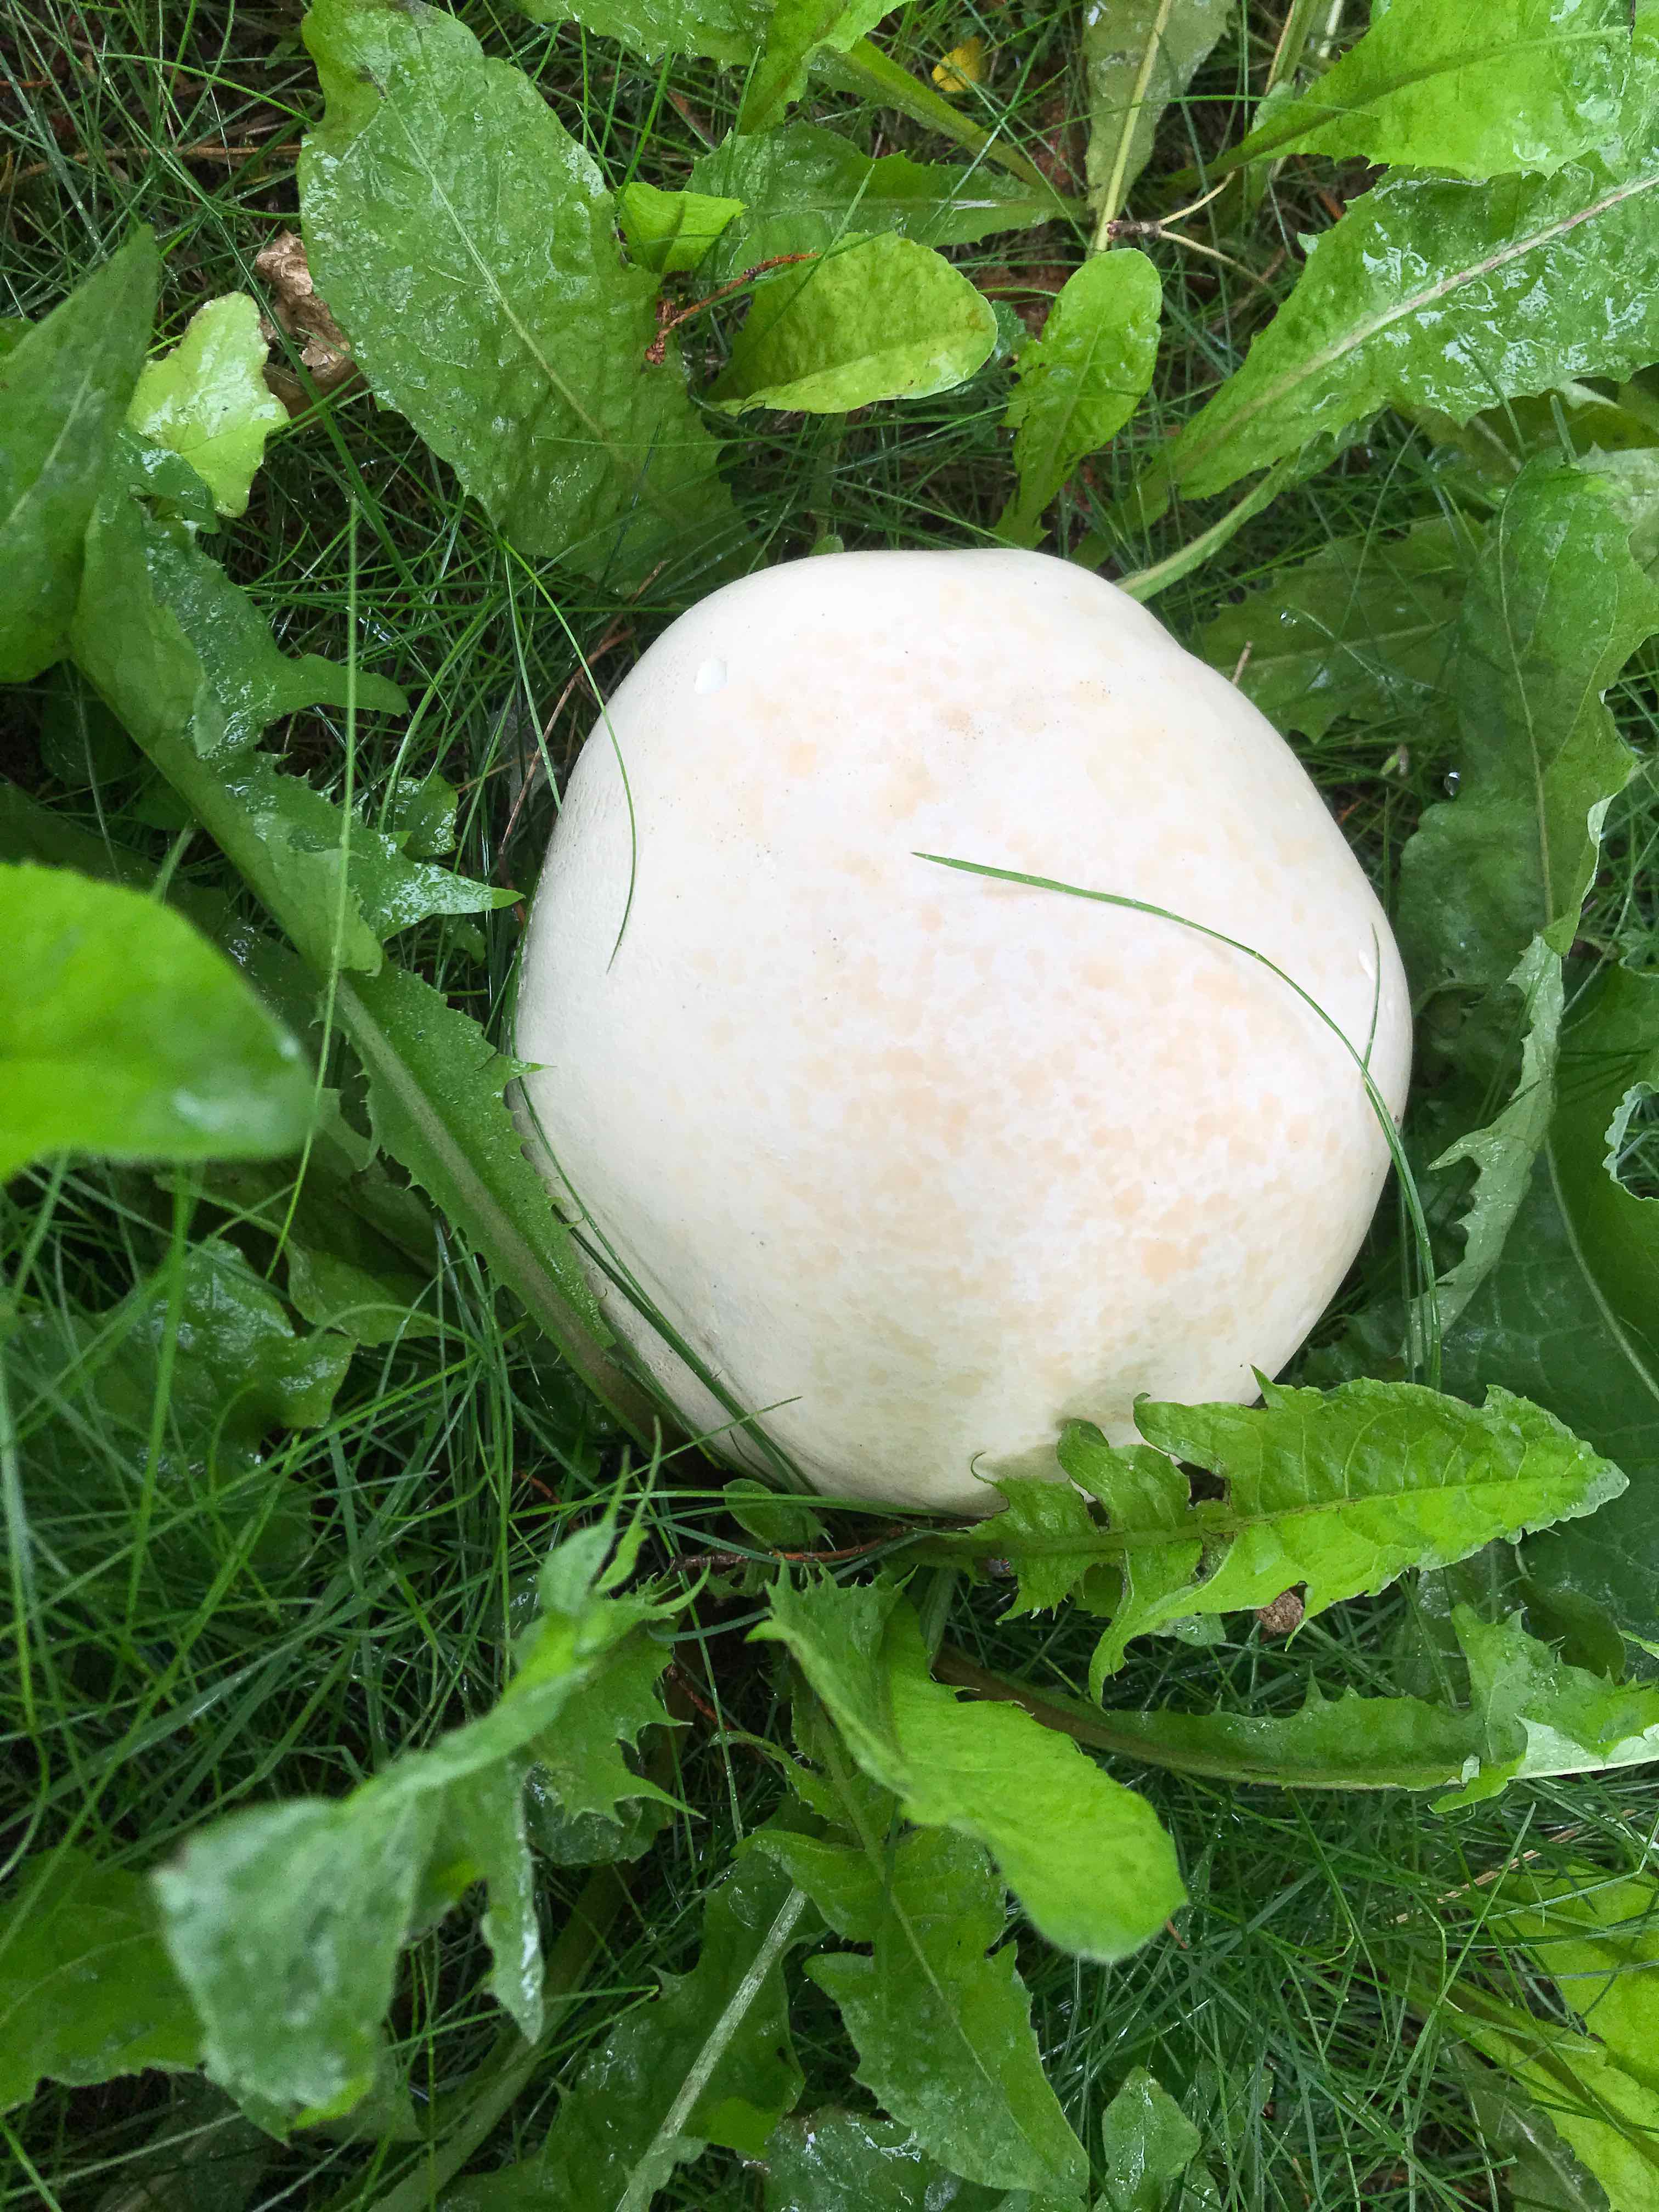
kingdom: Fungi
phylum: Basidiomycota
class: Agaricomycetes
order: Agaricales
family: Lycoperdaceae
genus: Calvatia
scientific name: Calvatia gigantea
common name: kæmpestøvbold
